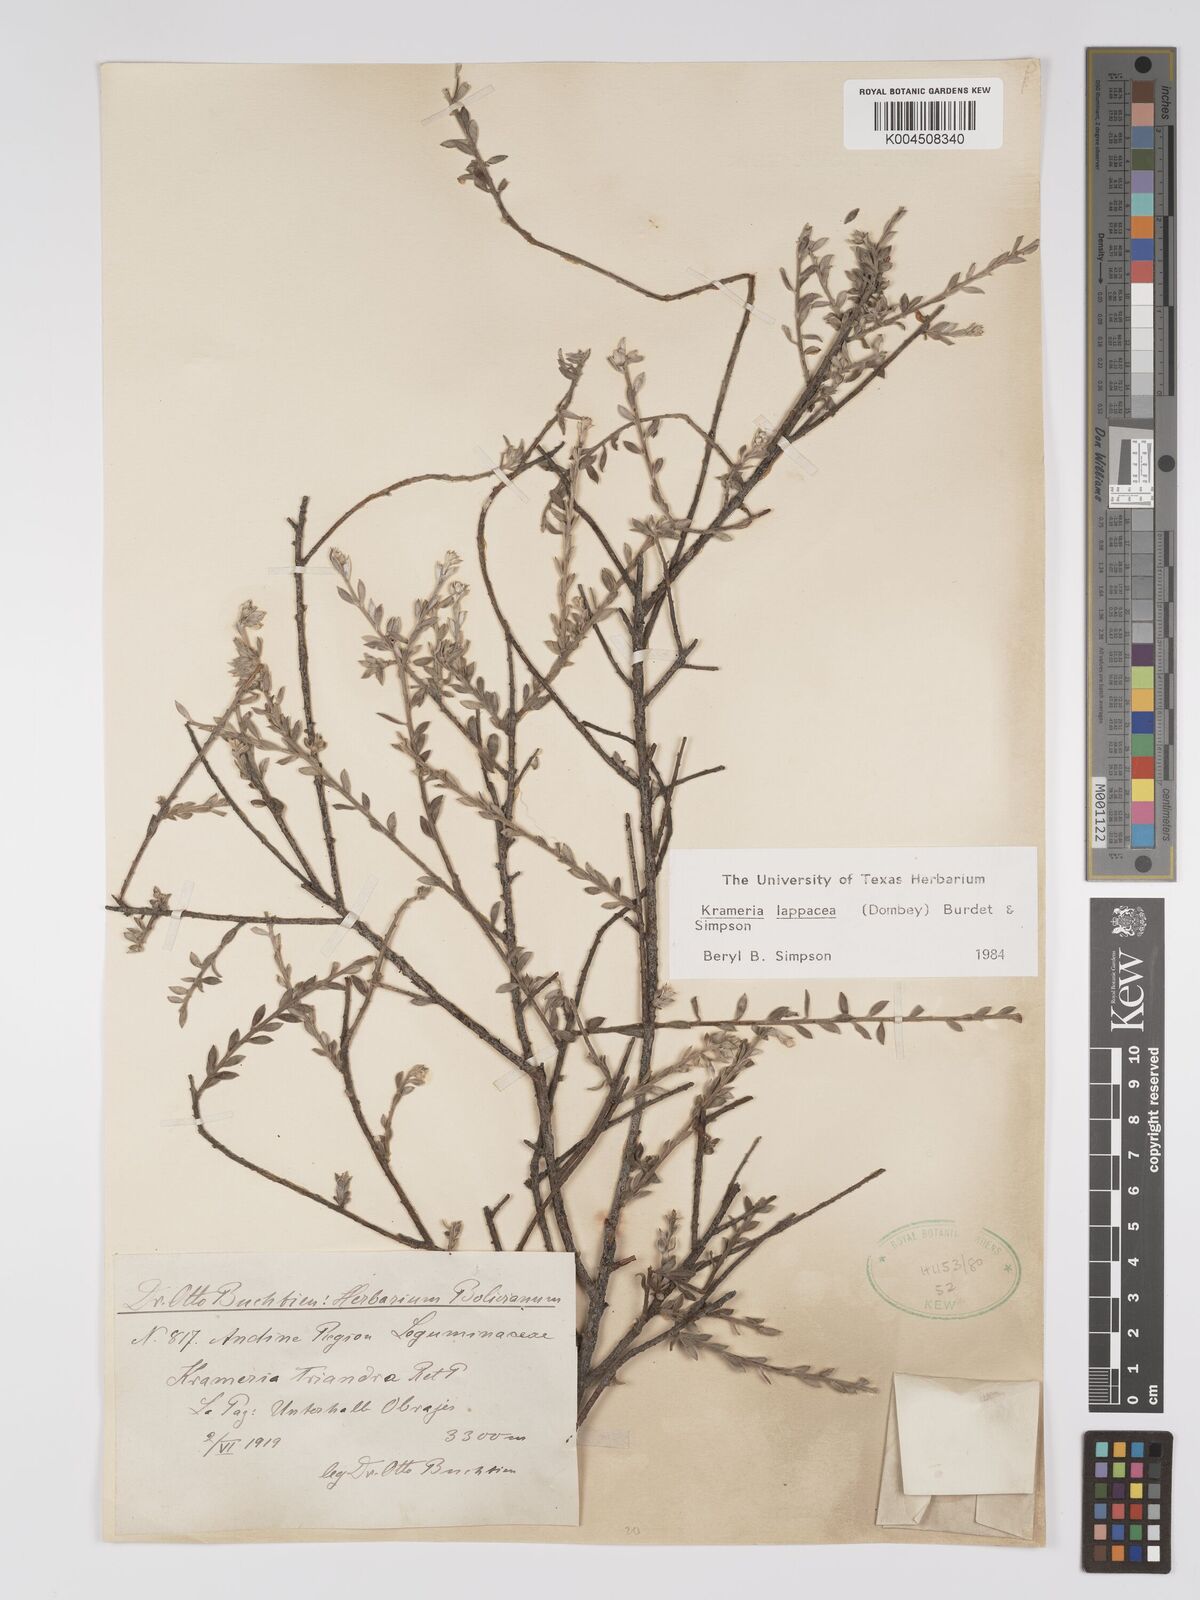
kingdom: Plantae
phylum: Tracheophyta
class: Magnoliopsida
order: Zygophyllales
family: Krameriaceae
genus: Krameria
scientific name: Krameria lappacea
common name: Rhatany
